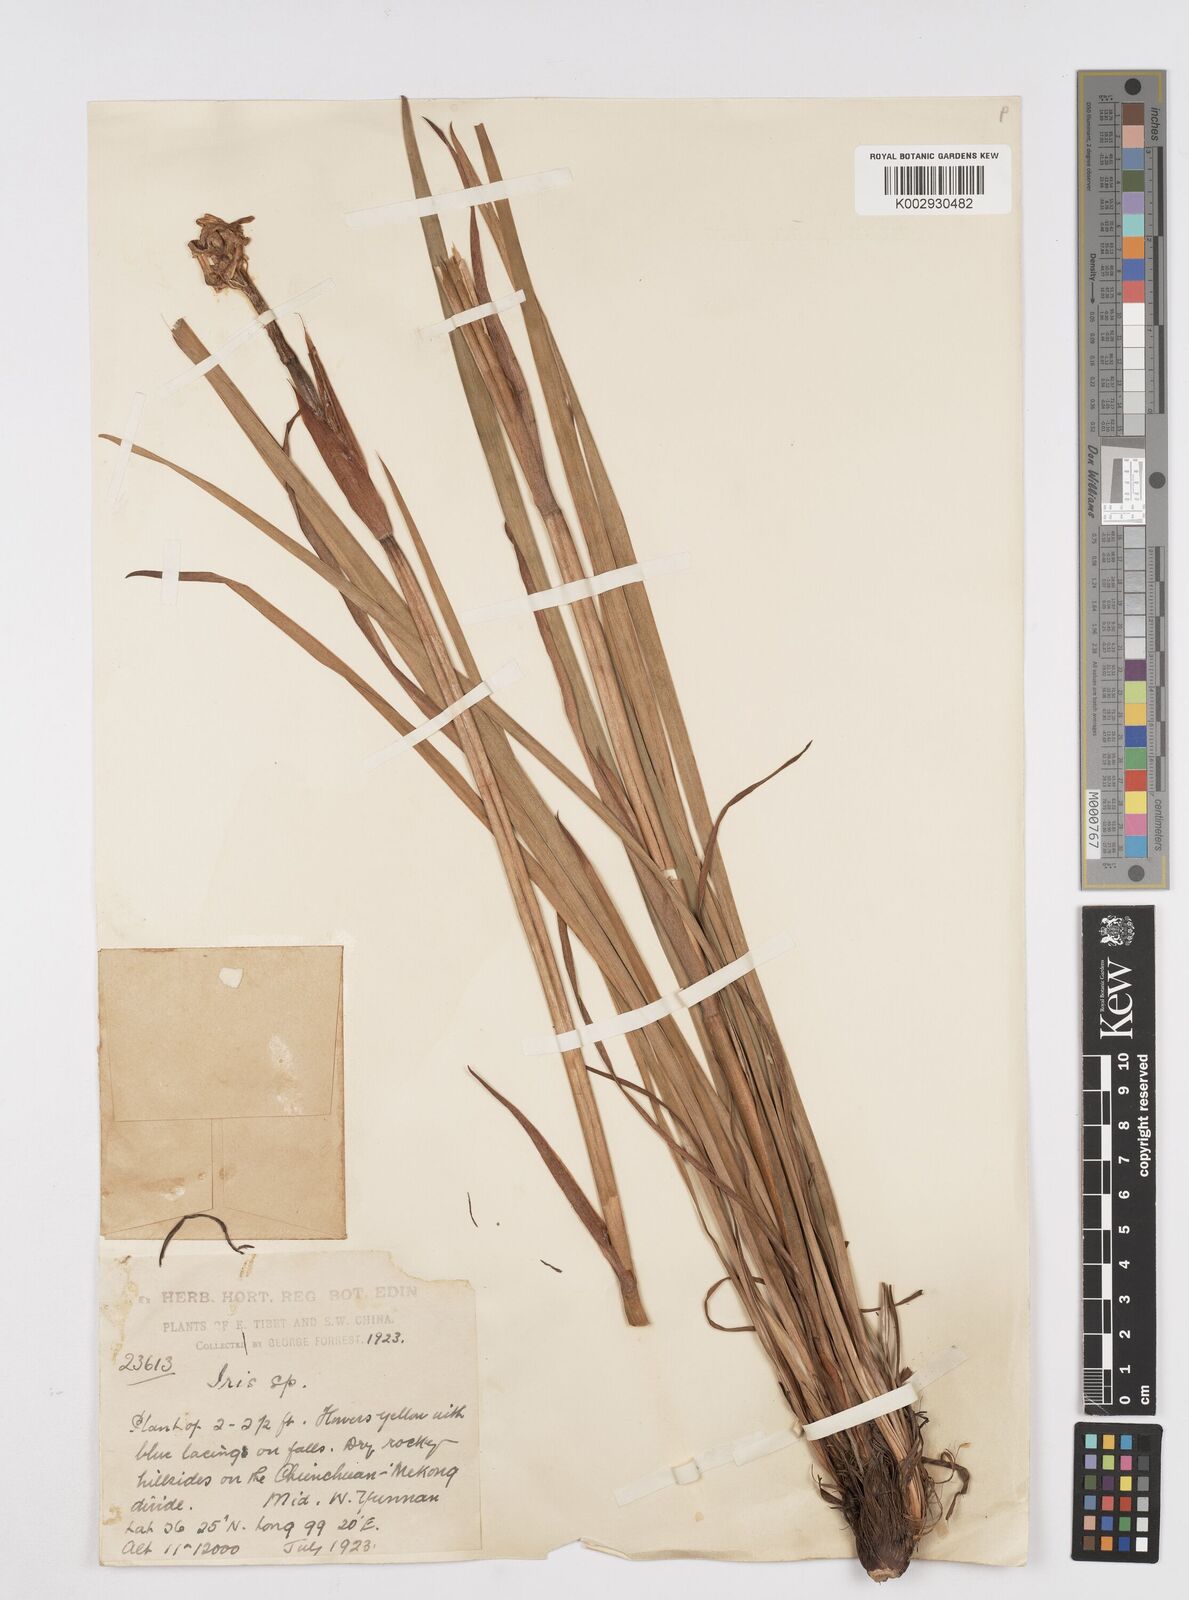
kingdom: Plantae
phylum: Tracheophyta
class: Liliopsida
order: Asparagales
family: Iridaceae
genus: Iris
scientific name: Iris wilsonii
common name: Yellow-flower iris
